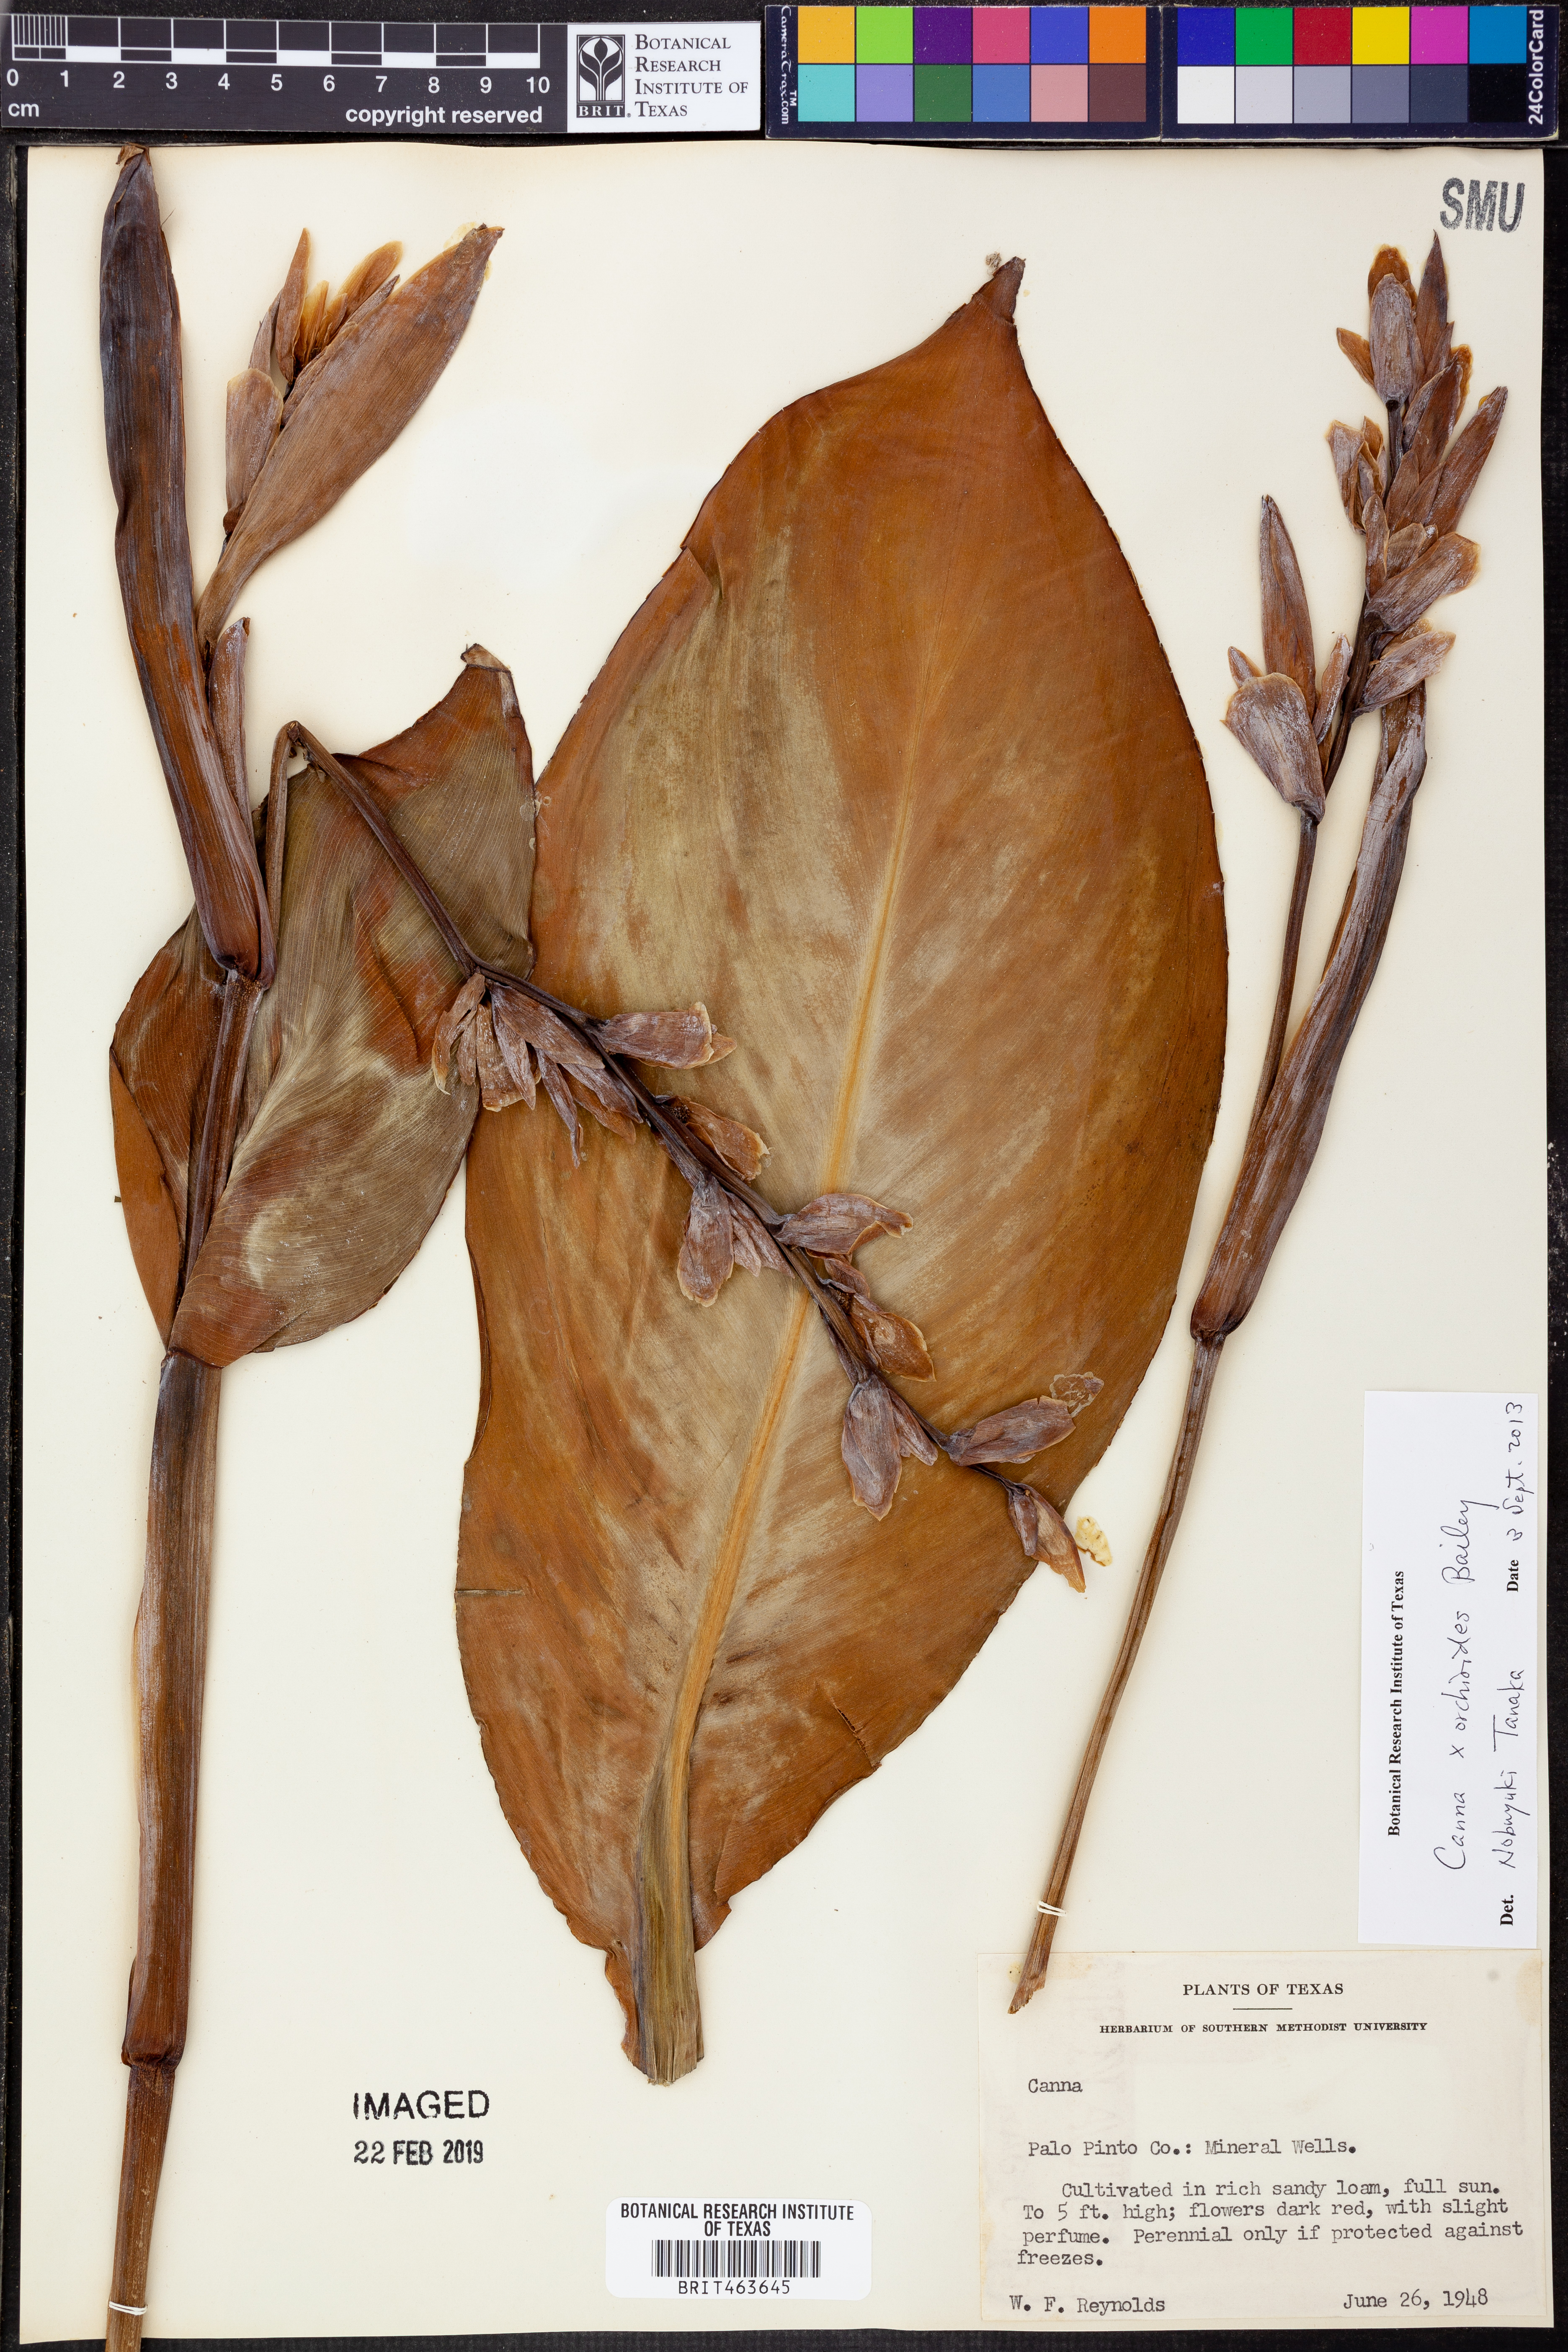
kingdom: Plantae
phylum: Tracheophyta
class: Liliopsida
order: Zingiberales
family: Cannaceae
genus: Canna
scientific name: Canna orchiodes
